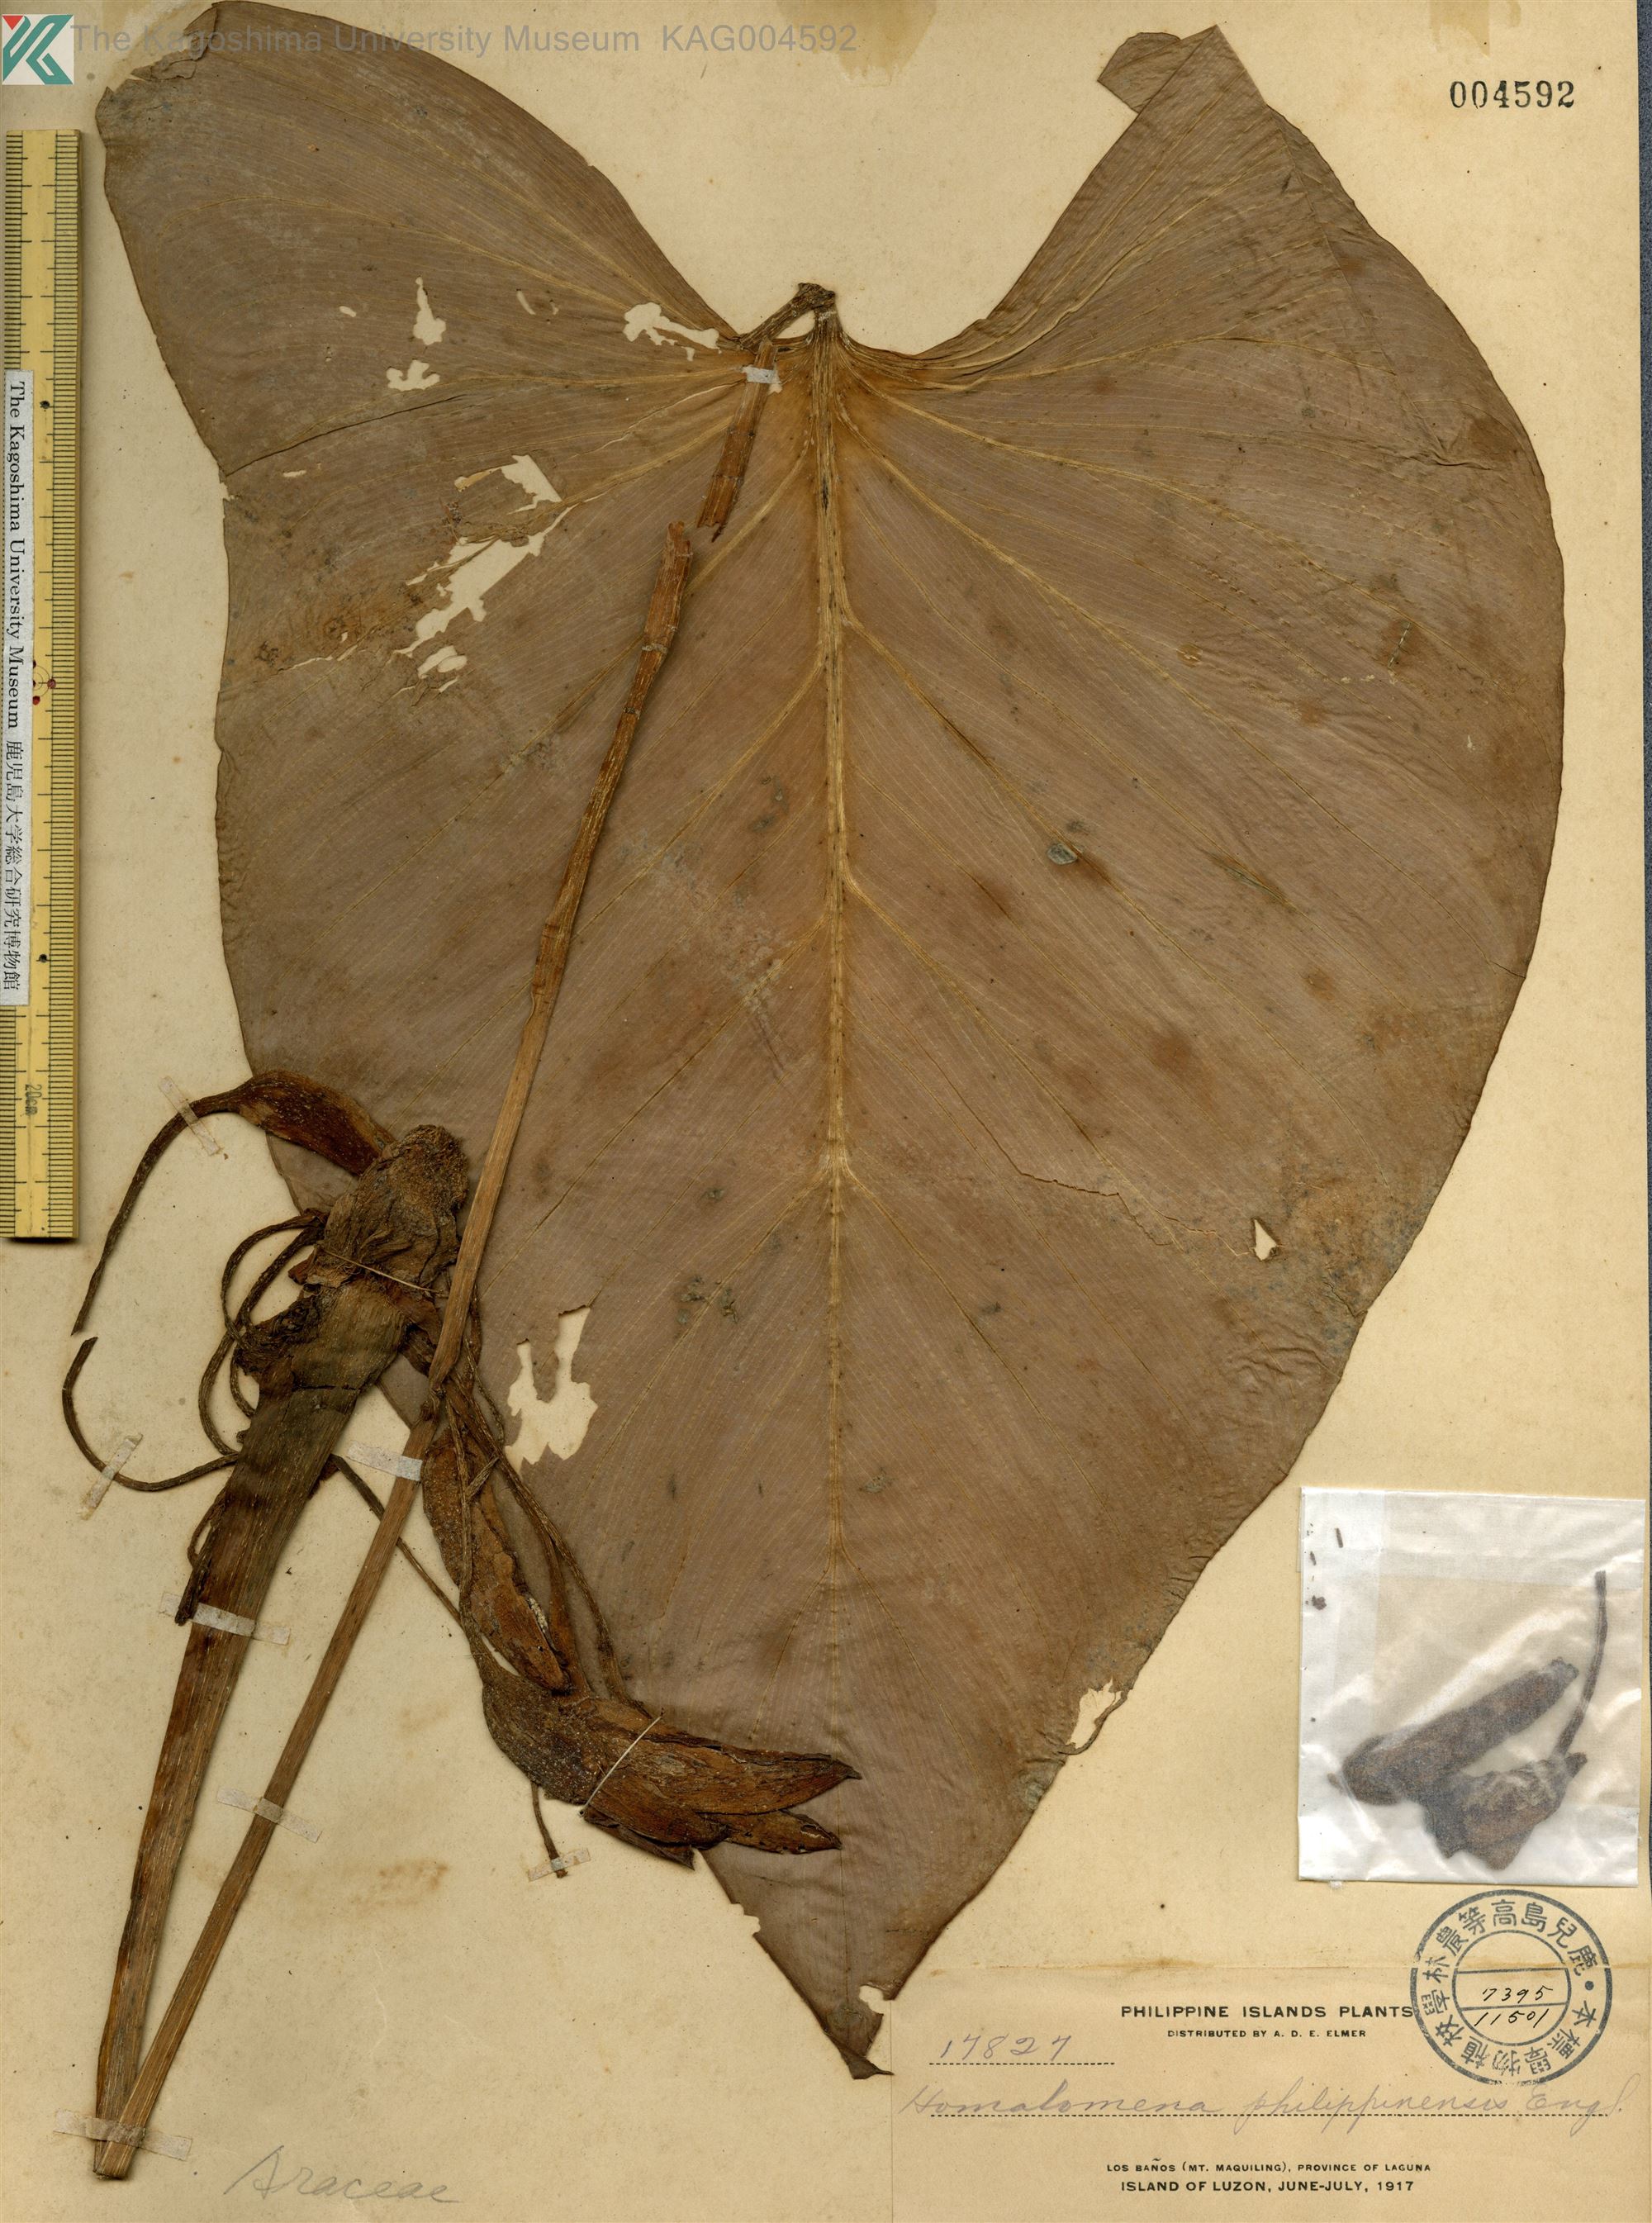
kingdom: Plantae
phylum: Tracheophyta
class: Liliopsida
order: Alismatales
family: Araceae
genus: Homalomena
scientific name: Homalomena philippinensis
